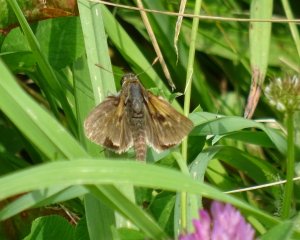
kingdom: Animalia
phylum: Arthropoda
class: Insecta
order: Lepidoptera
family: Hesperiidae
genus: Polites
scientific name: Polites themistocles
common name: Tawny-edged Skipper
